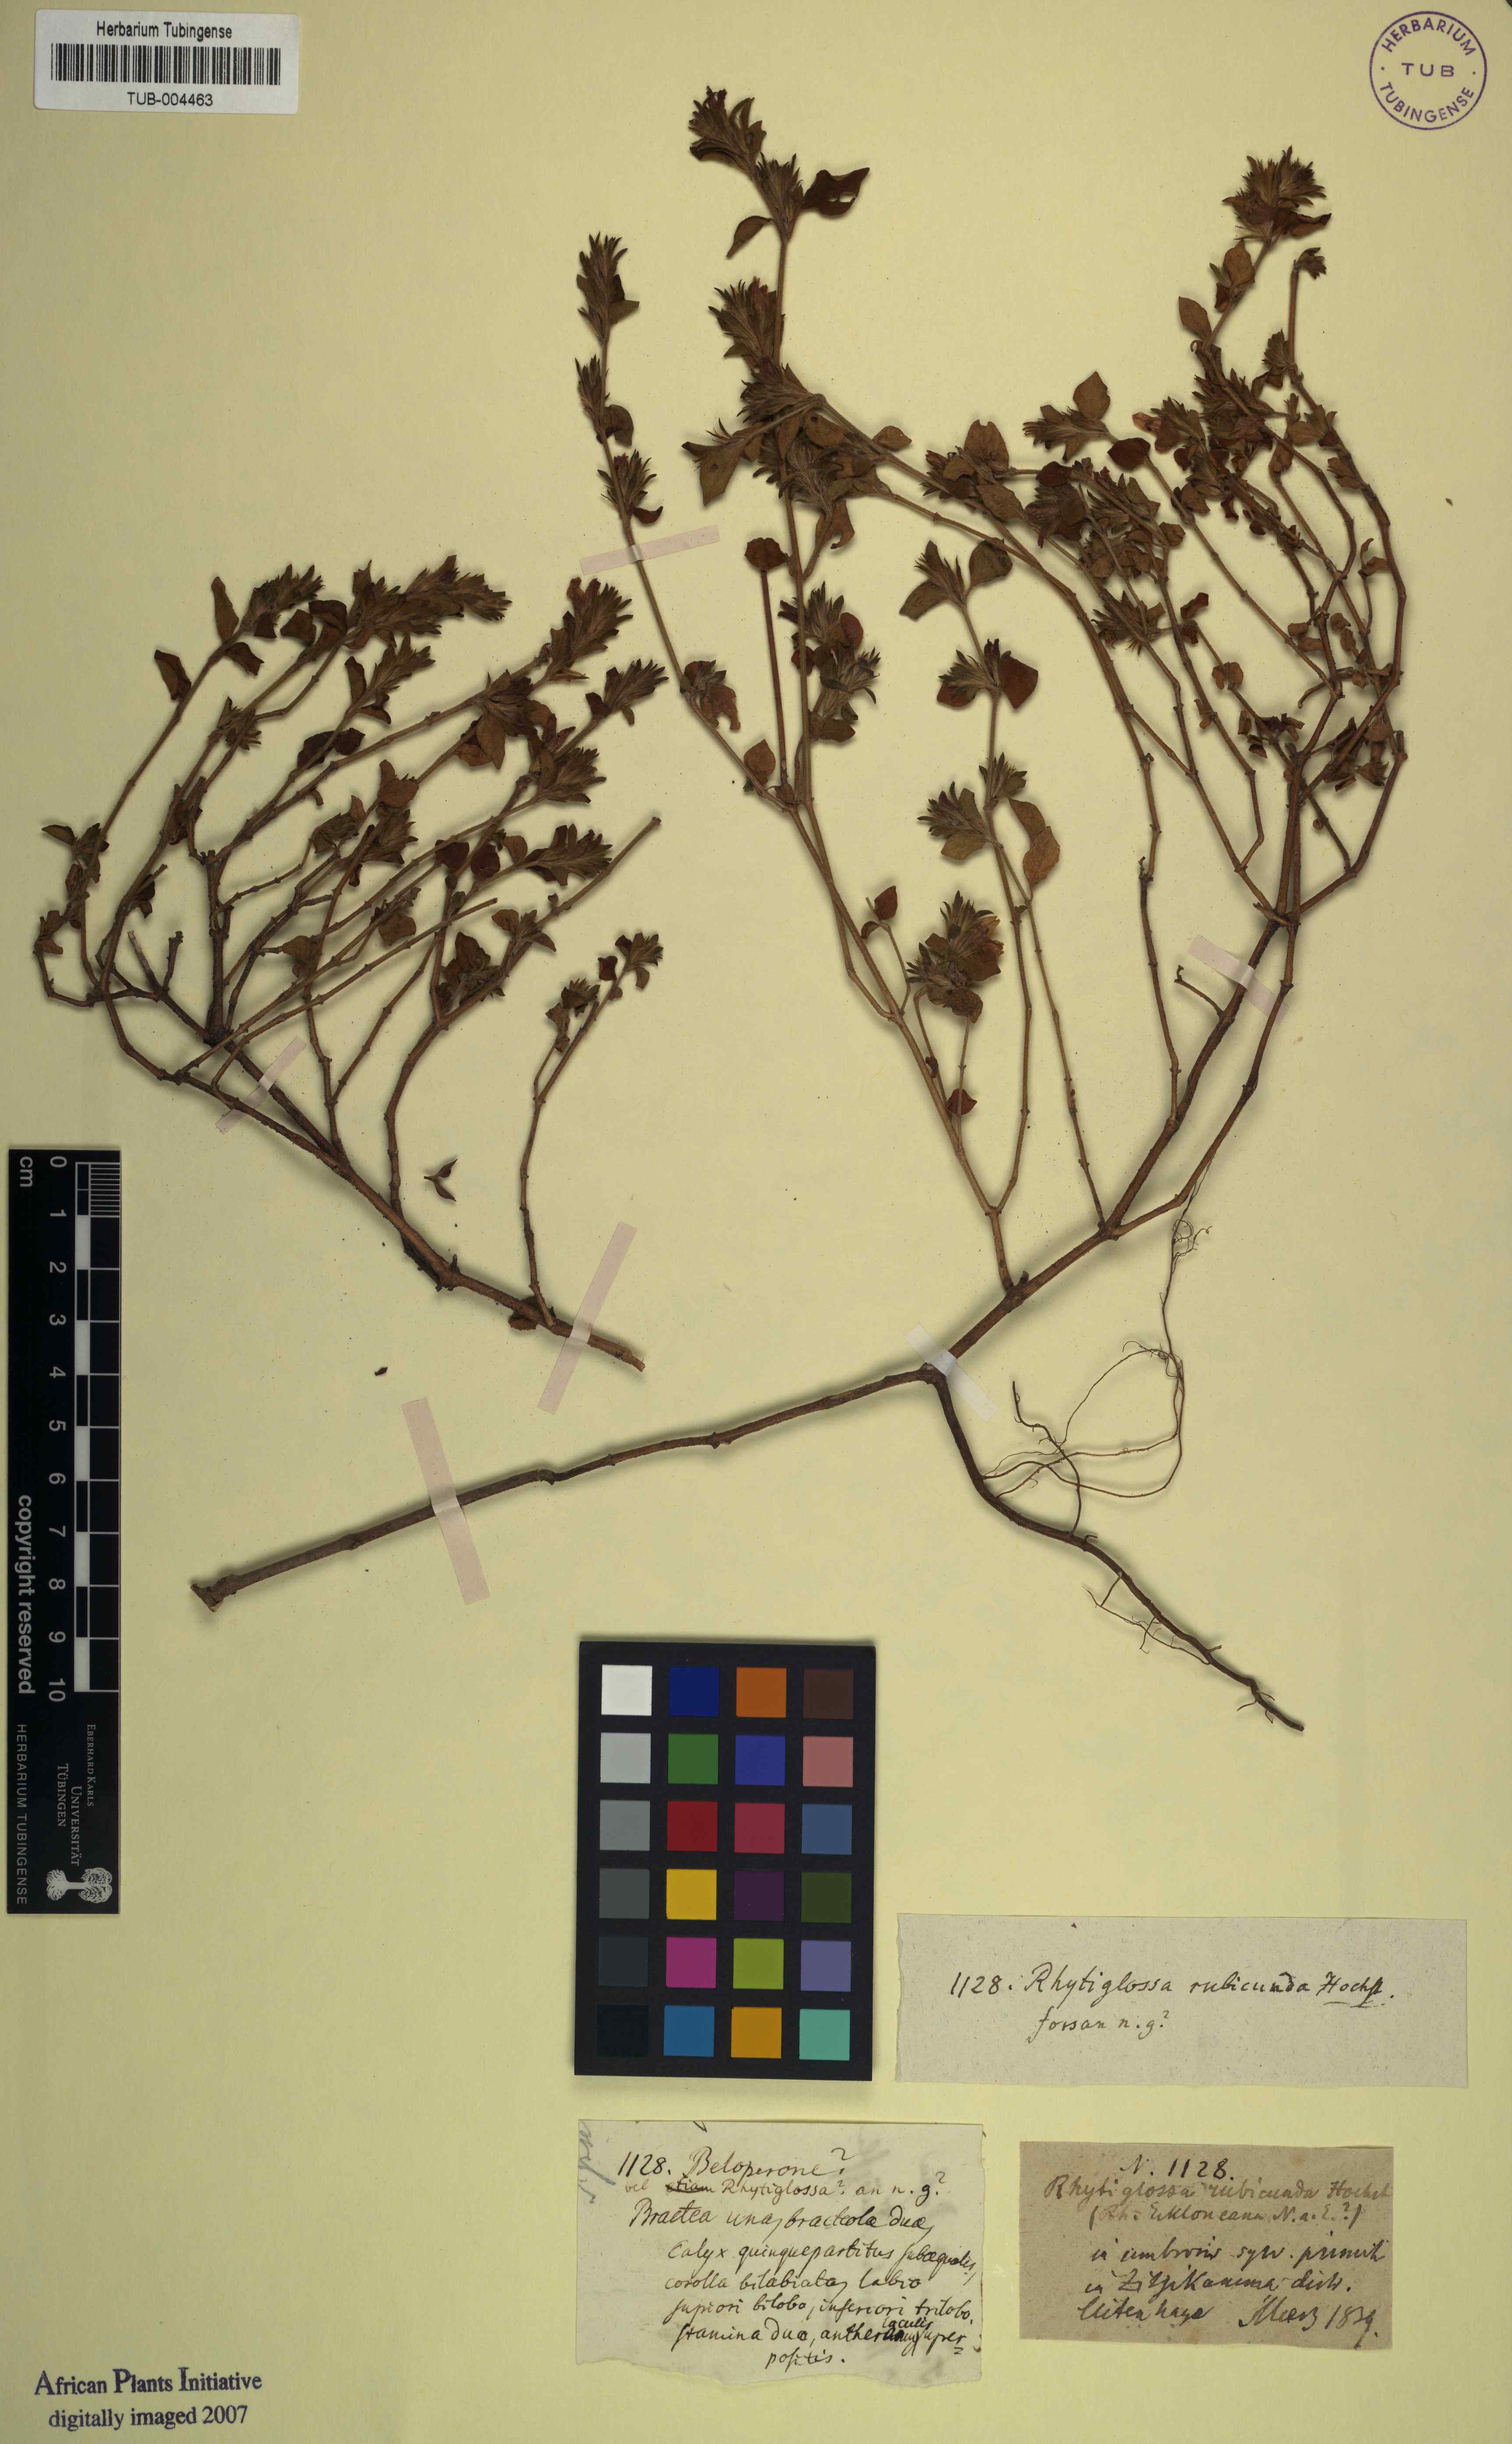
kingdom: Plantae
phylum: Tracheophyta
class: Magnoliopsida
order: Lamiales
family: Acanthaceae
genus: Justicia
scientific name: Justicia rubicunda
